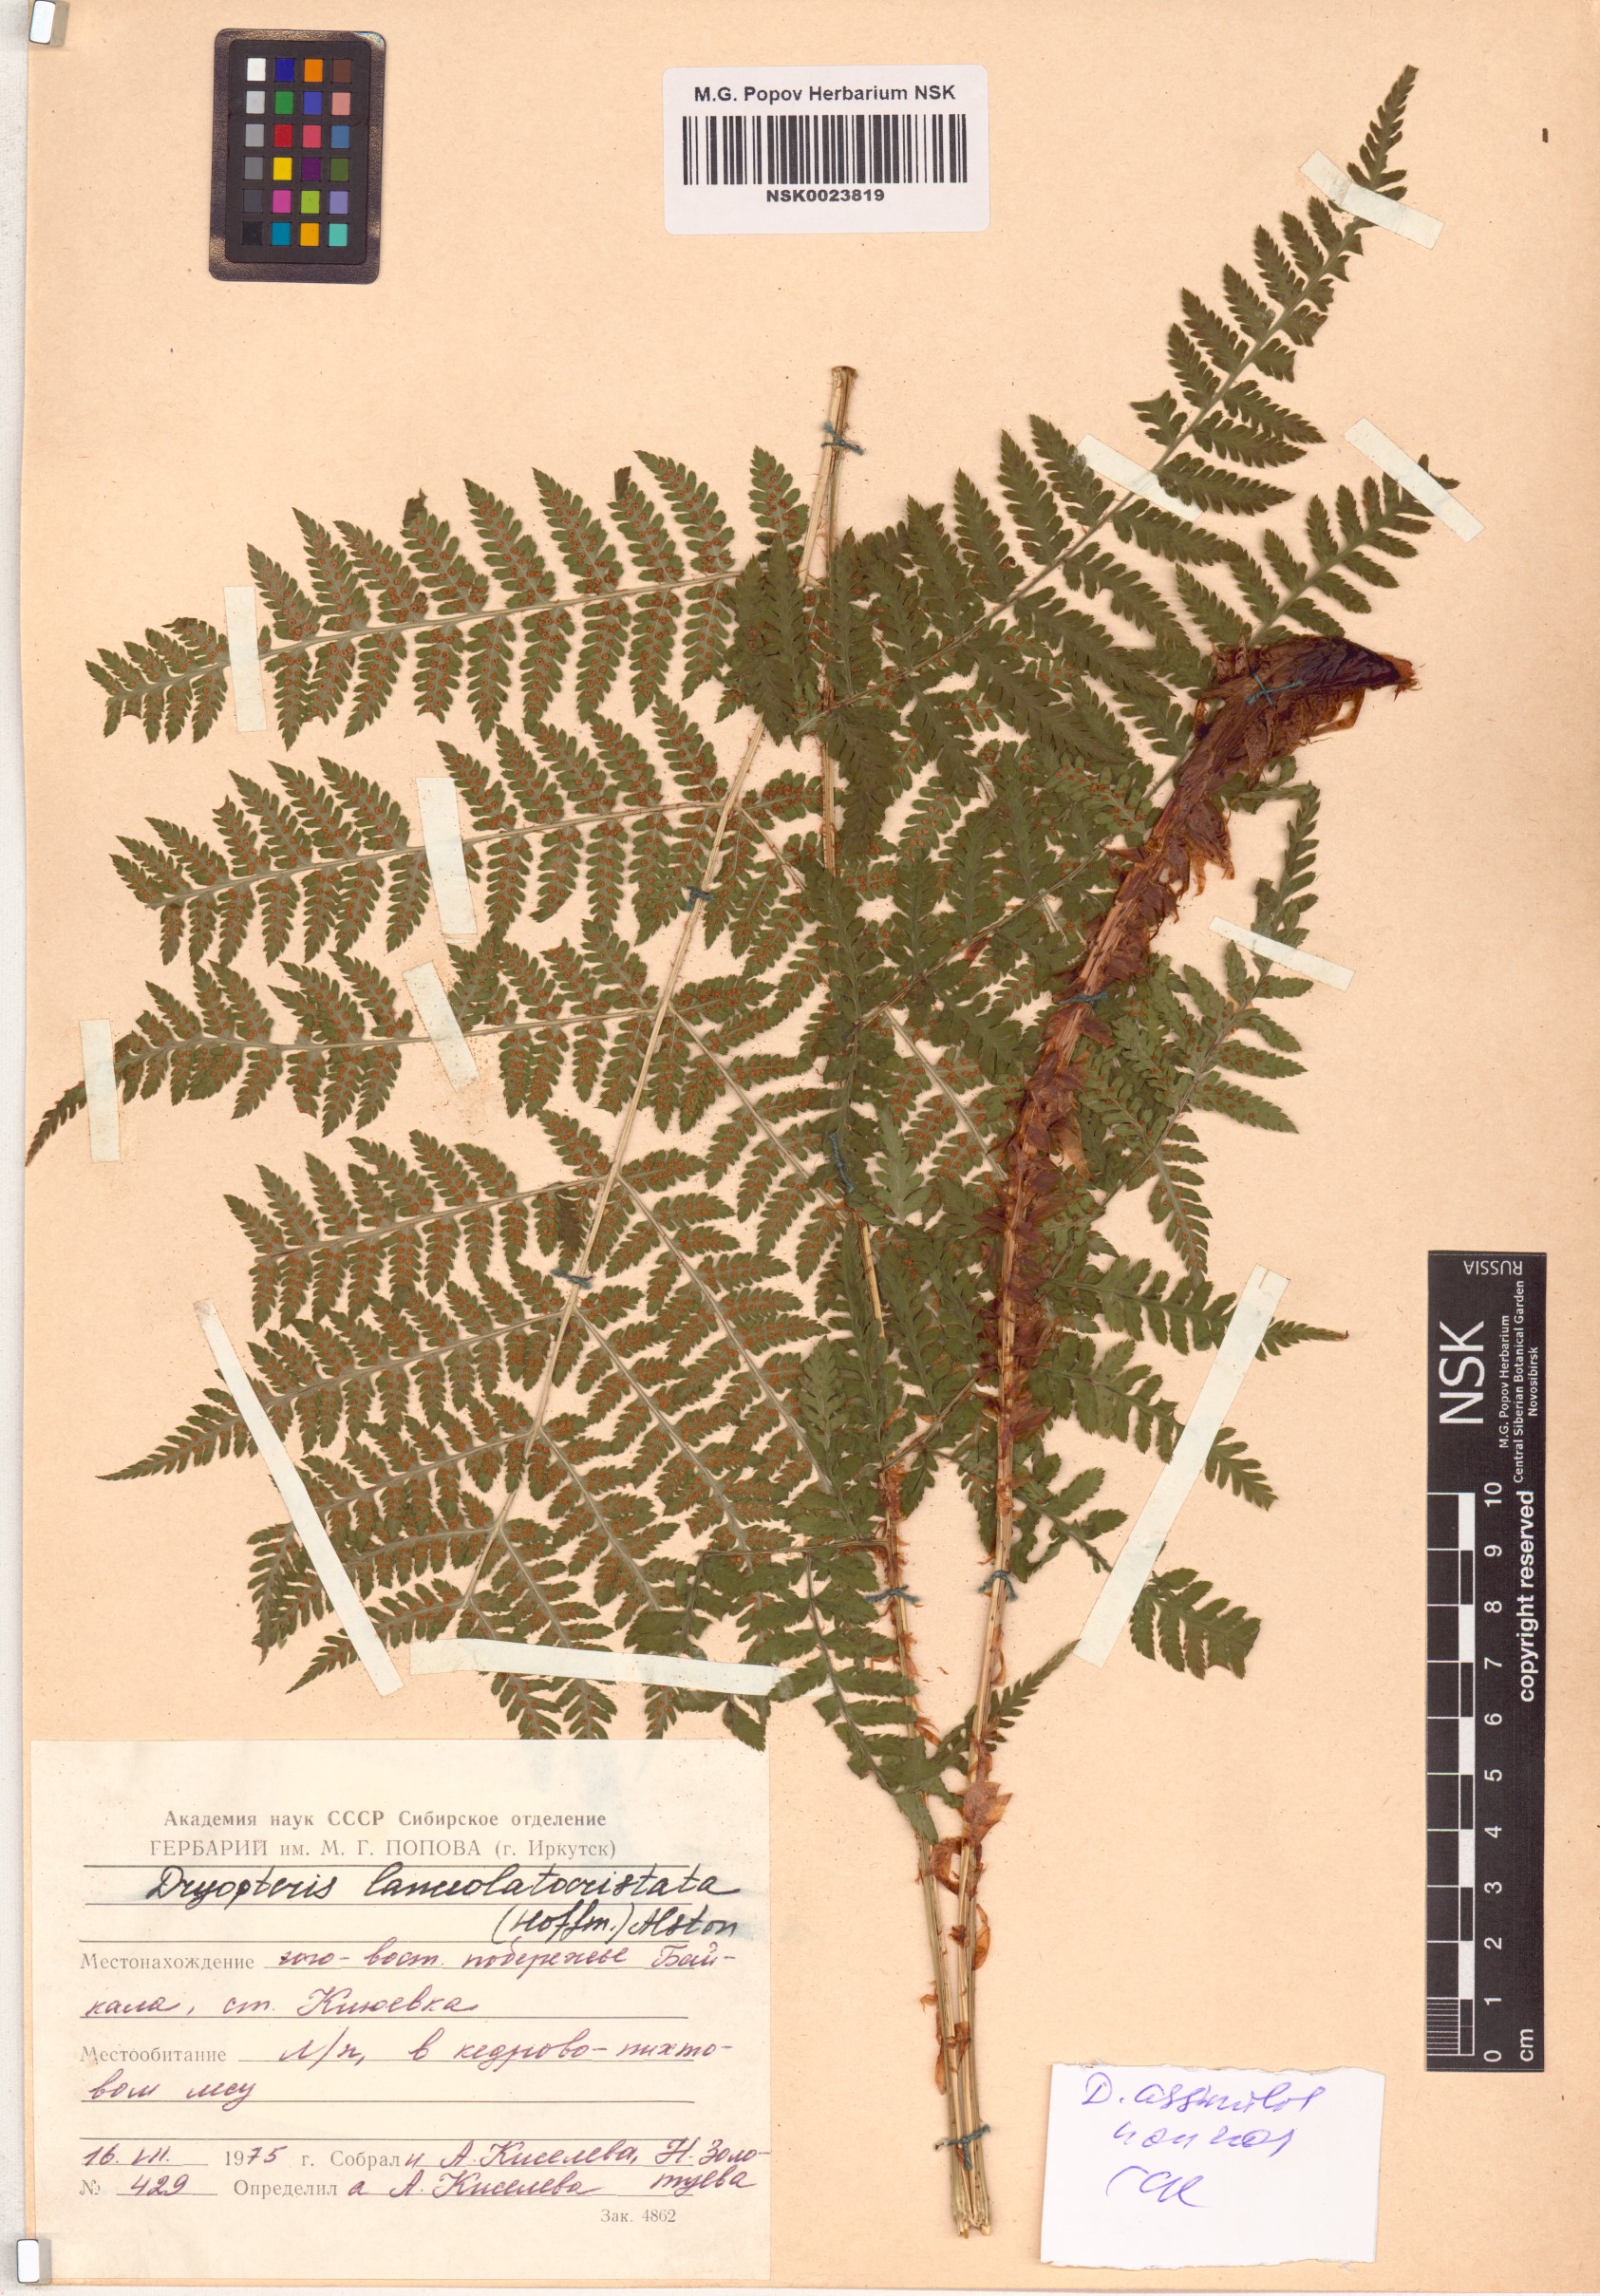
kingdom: Plantae
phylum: Tracheophyta
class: Polypodiopsida
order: Polypodiales
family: Dryopteridaceae
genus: Dryopteris
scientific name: Dryopteris expansa
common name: Northern buckler fern
